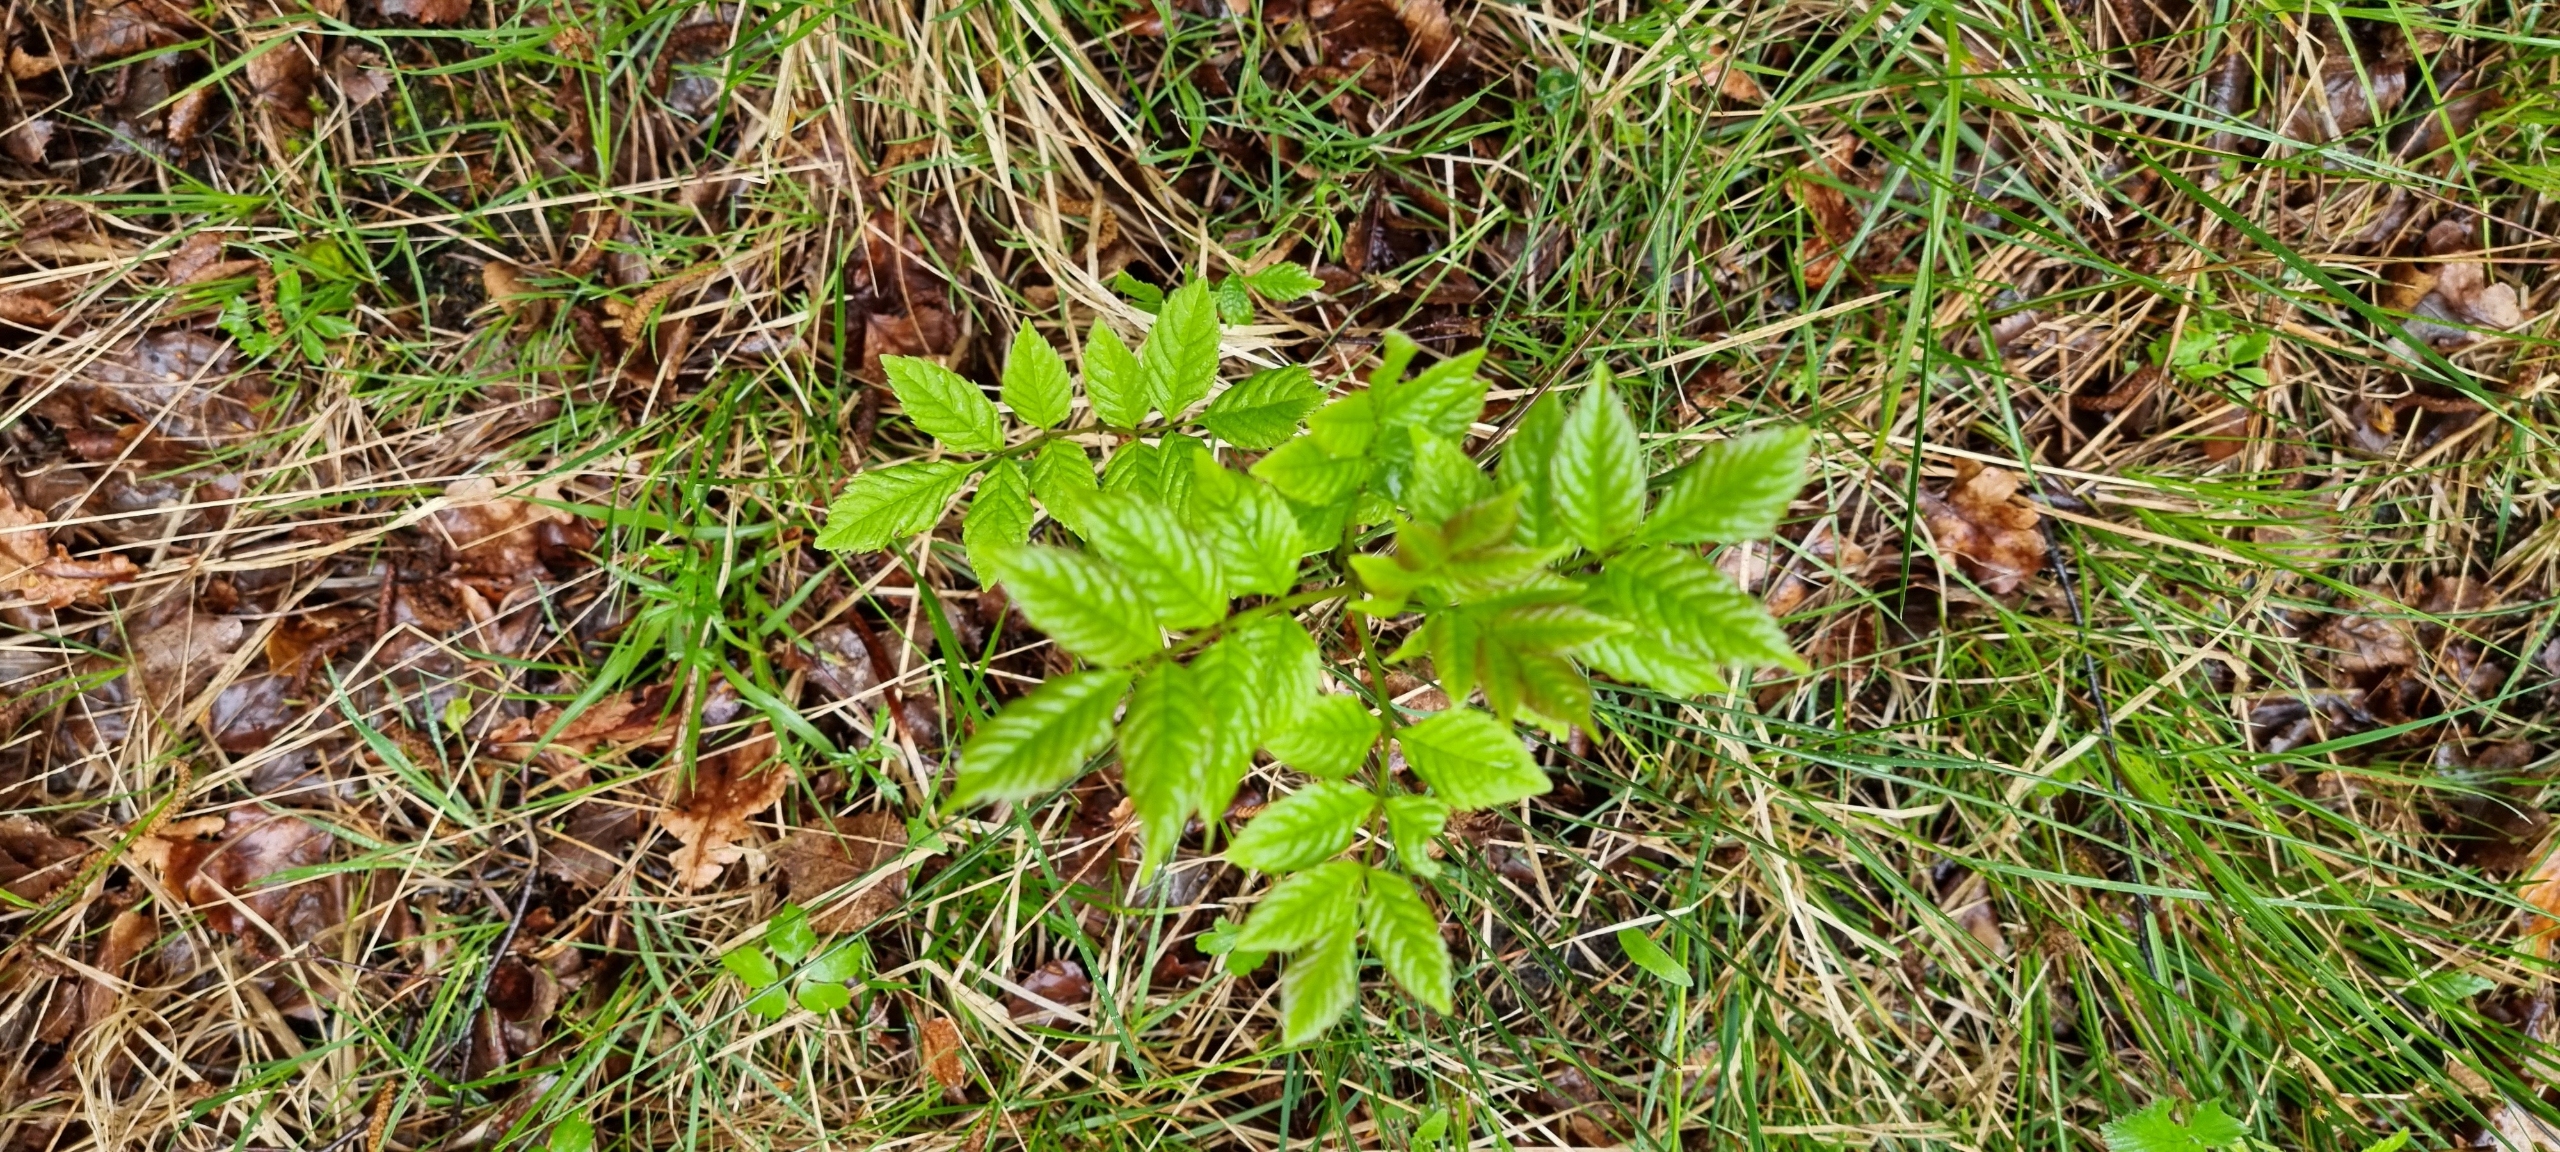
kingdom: Plantae
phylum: Tracheophyta
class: Magnoliopsida
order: Lamiales
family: Oleaceae
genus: Fraxinus
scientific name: Fraxinus excelsior
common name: Ask
